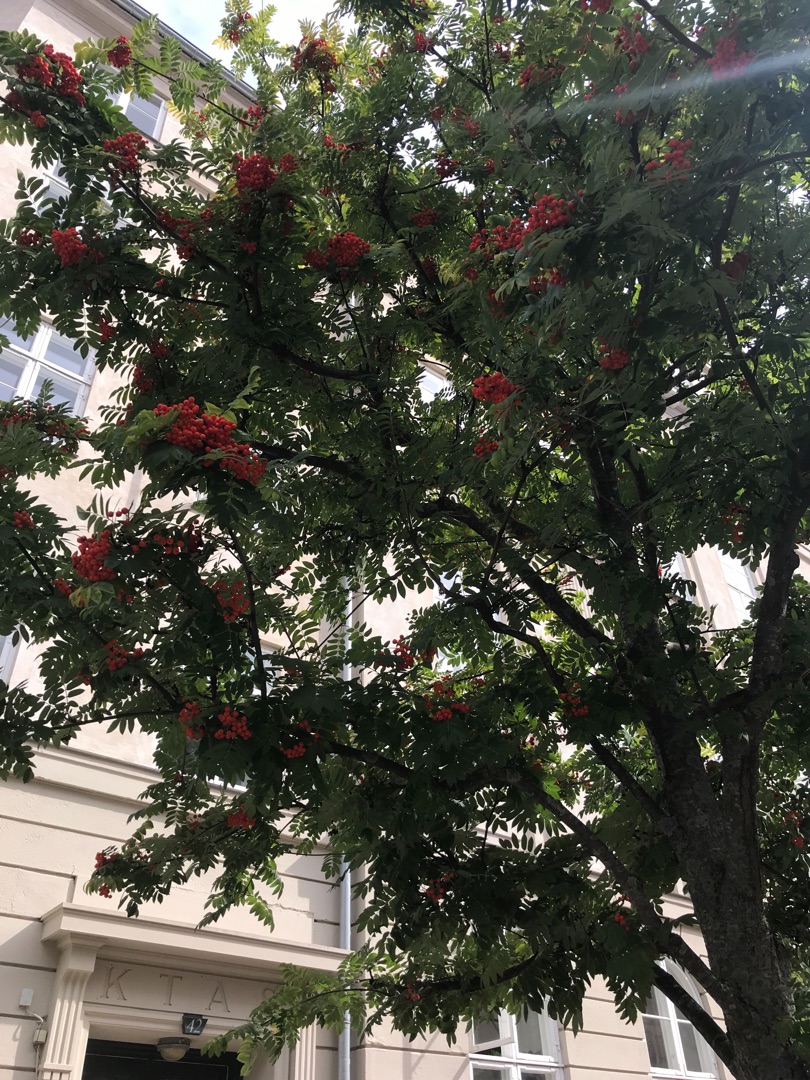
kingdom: Plantae
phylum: Tracheophyta
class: Magnoliopsida
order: Rosales
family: Rosaceae
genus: Sorbus
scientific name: Sorbus aucuparia
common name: Almindelig røn
